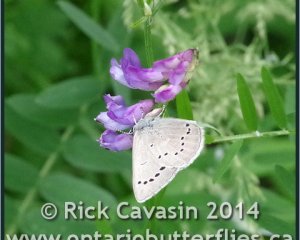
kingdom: Animalia
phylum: Arthropoda
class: Insecta
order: Lepidoptera
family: Lycaenidae
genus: Glaucopsyche
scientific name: Glaucopsyche lygdamus
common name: Silvery Blue
